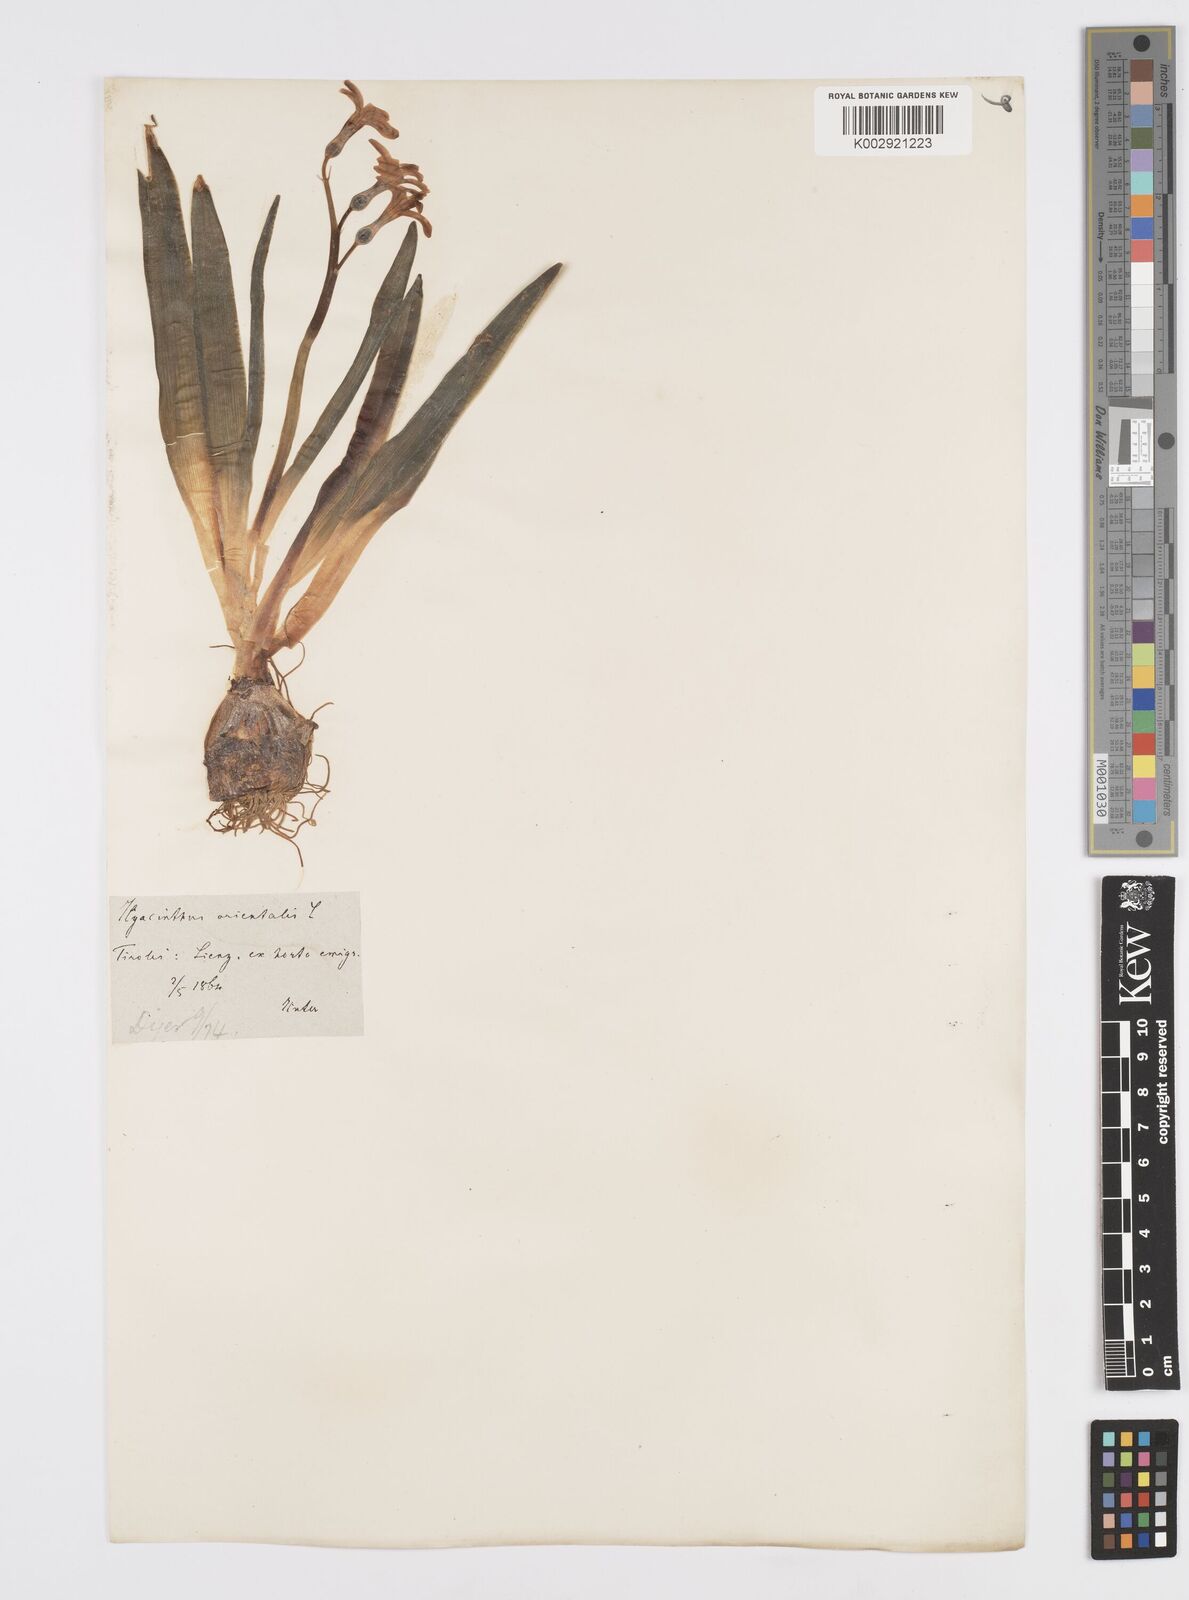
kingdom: Plantae
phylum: Tracheophyta
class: Liliopsida
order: Asparagales
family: Asparagaceae
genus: Hyacinthus
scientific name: Hyacinthus orientalis
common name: Hyacinth
